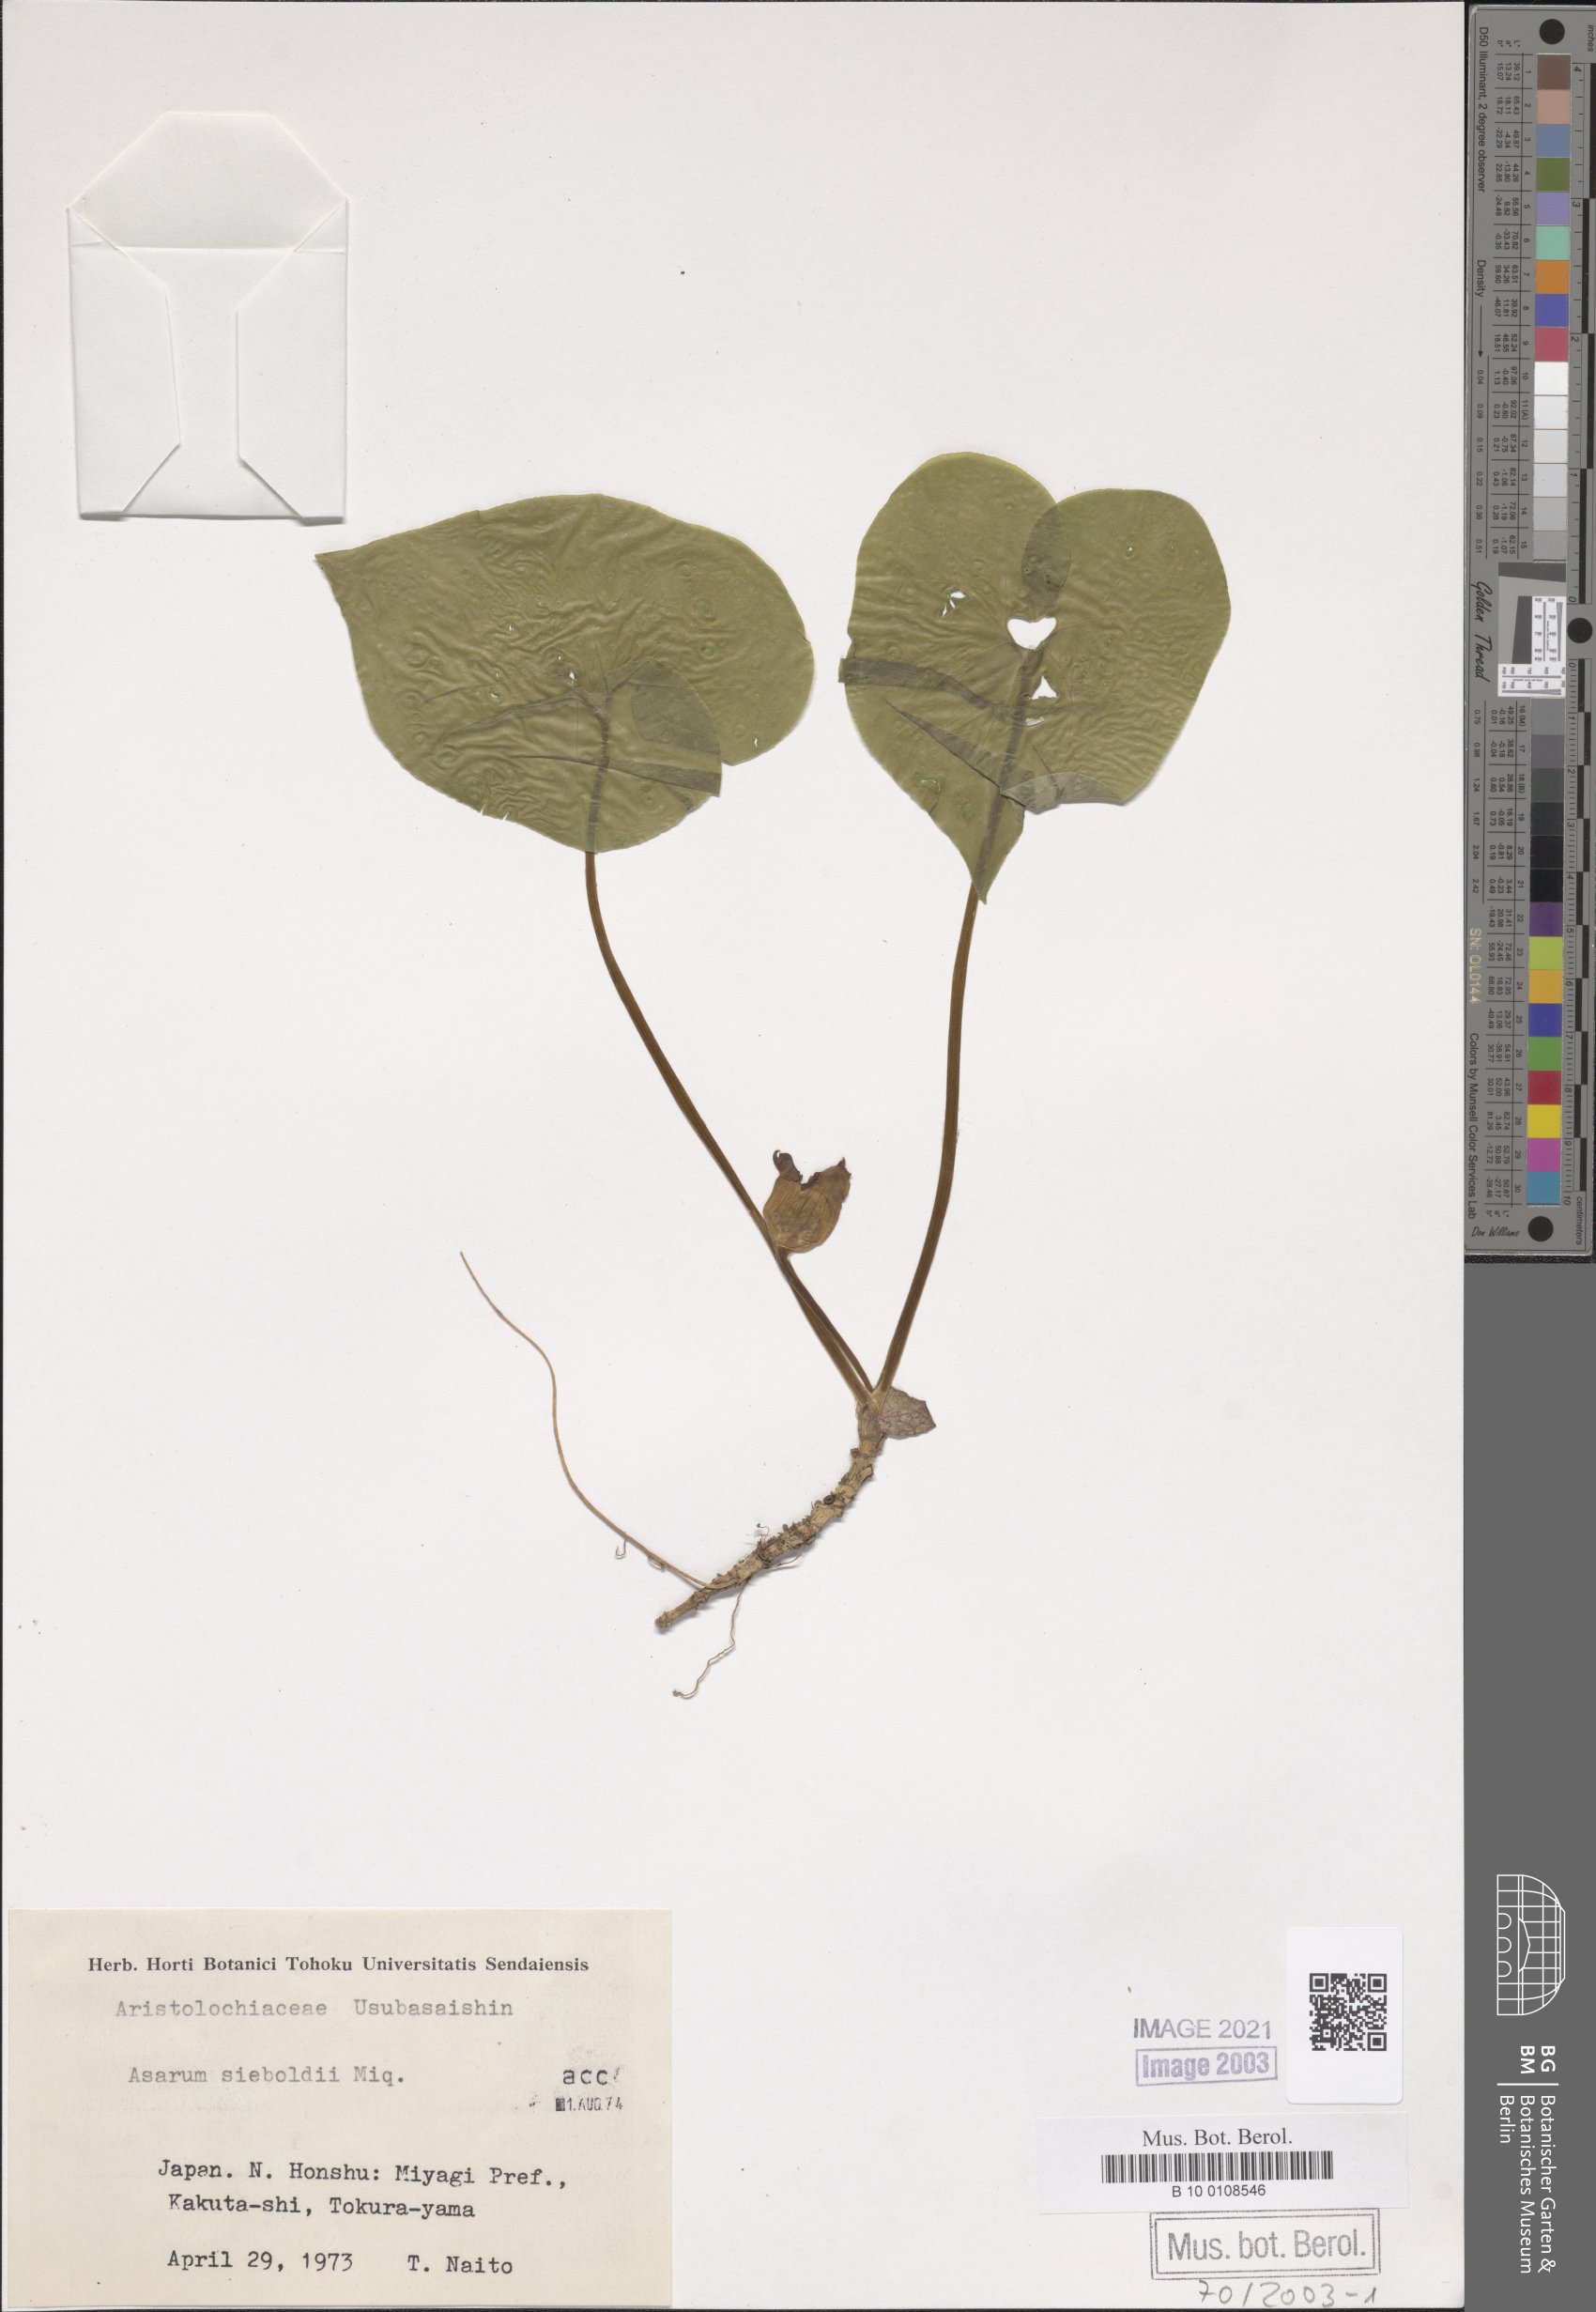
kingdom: Plantae
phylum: Tracheophyta
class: Magnoliopsida
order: Piperales
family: Aristolochiaceae
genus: Asarum
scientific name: Asarum sieboldii
